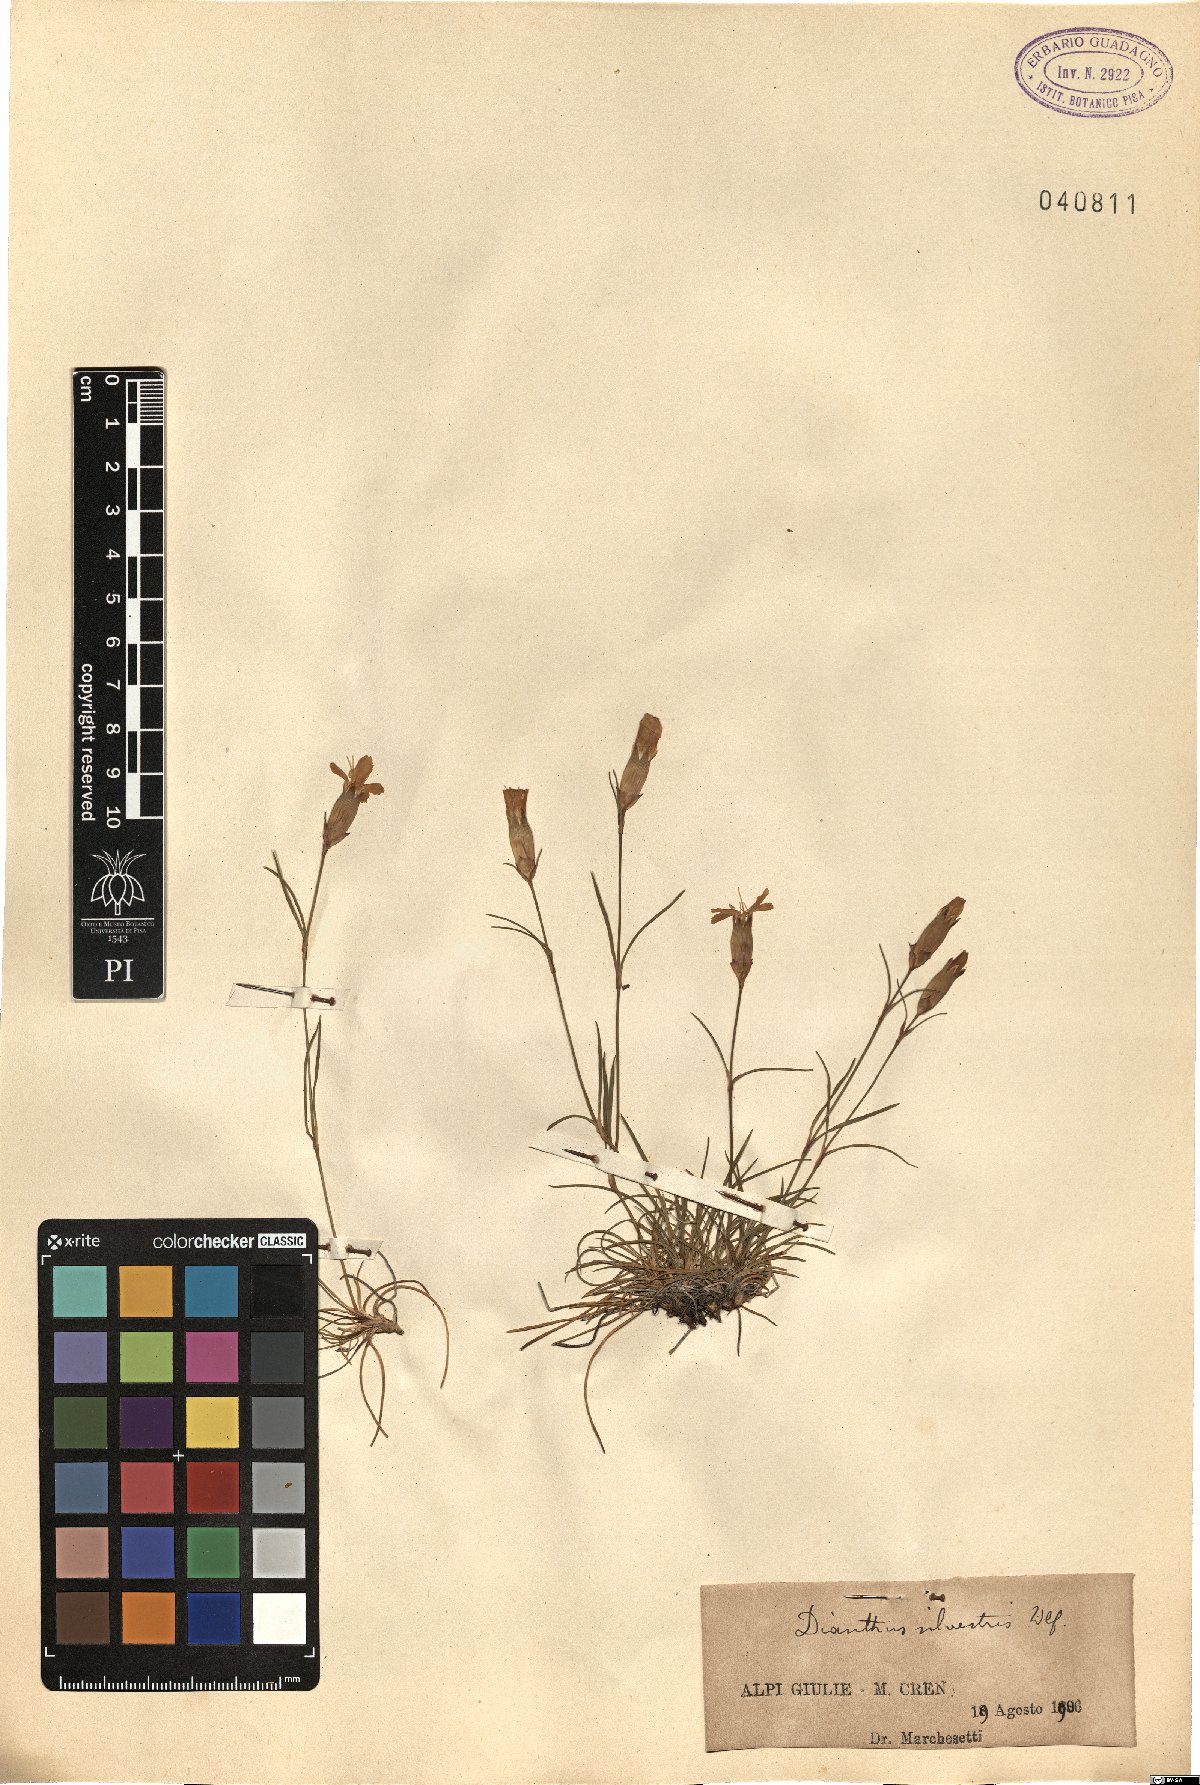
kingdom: Plantae
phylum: Tracheophyta
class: Magnoliopsida
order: Caryophyllales
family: Caryophyllaceae
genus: Dianthus
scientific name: Dianthus sylvestris
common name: Wood pink
